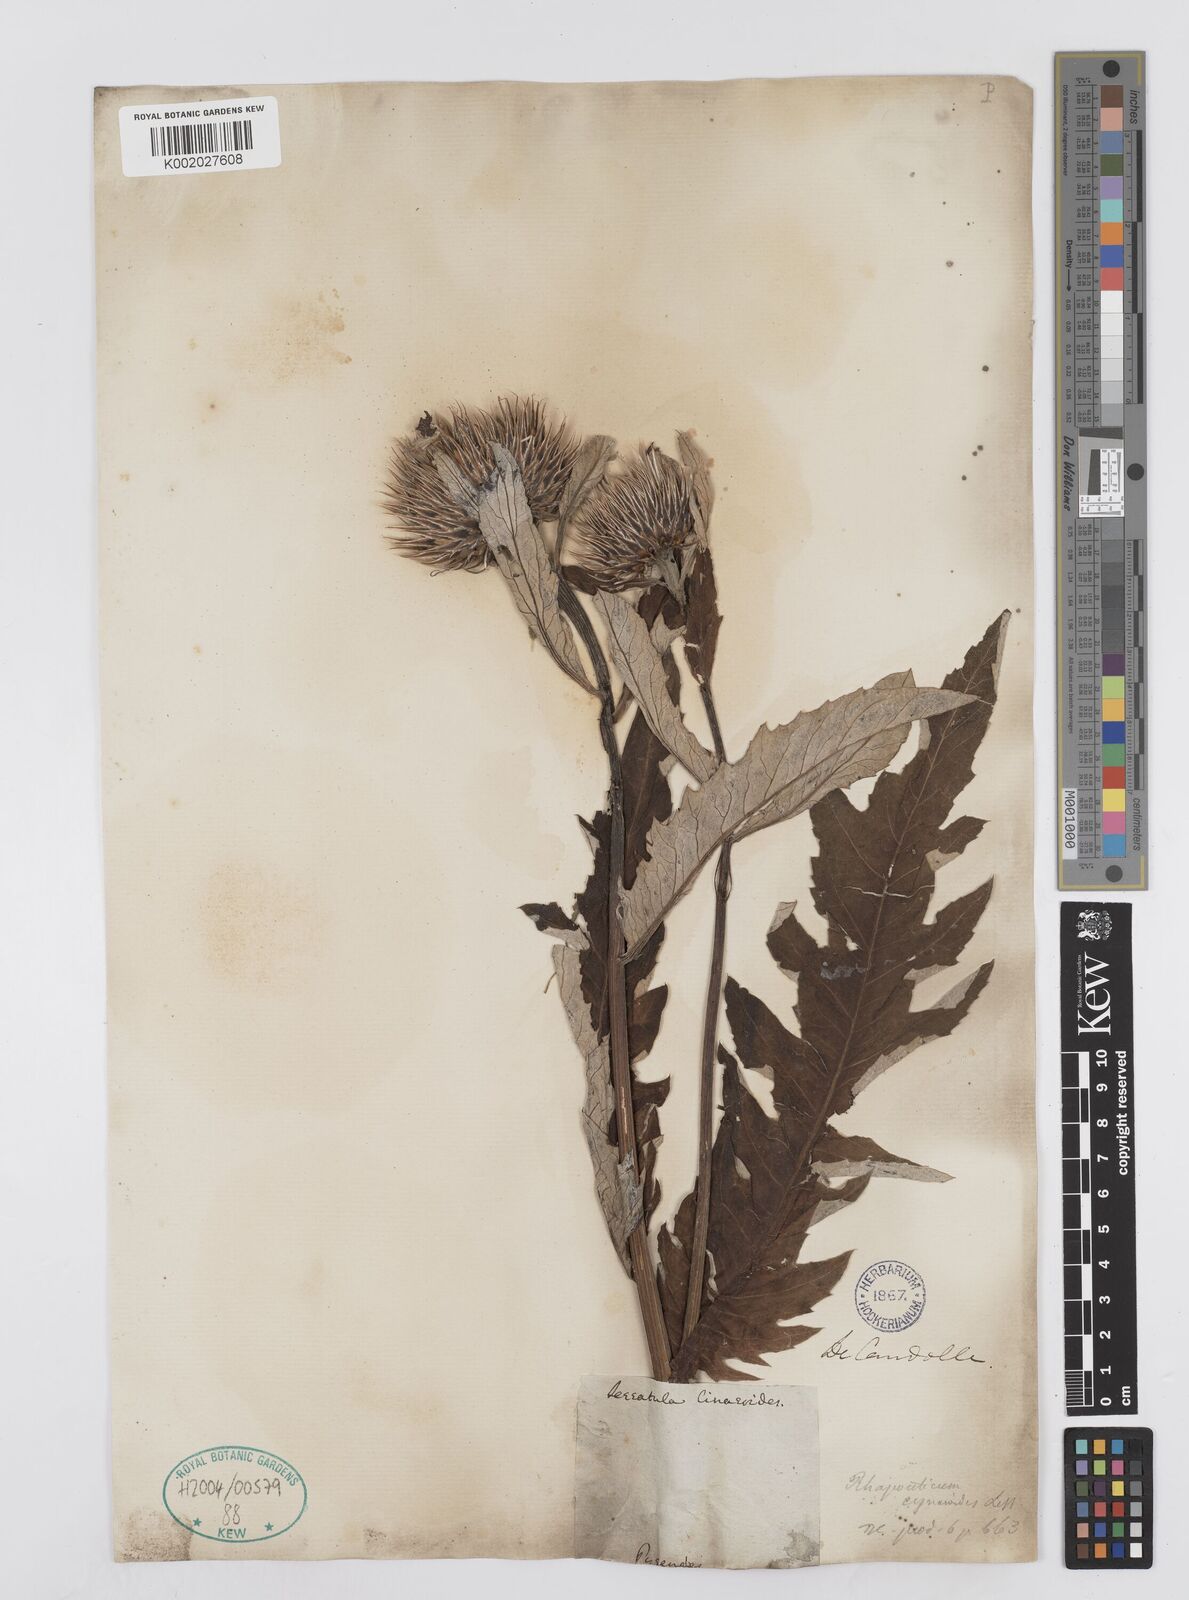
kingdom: Plantae
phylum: Tracheophyta
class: Magnoliopsida
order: Asterales
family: Asteraceae
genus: Leuzea
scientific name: Leuzea centauroides
